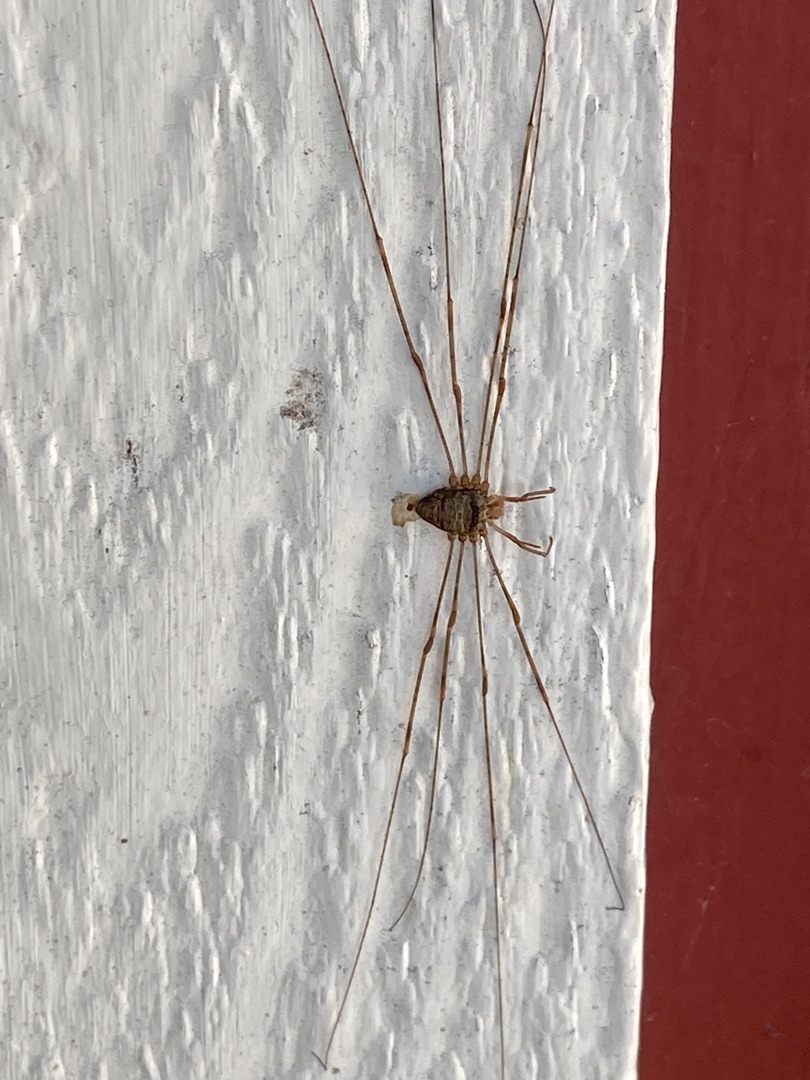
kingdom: Animalia
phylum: Arthropoda
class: Arachnida
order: Opiliones
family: Phalangiidae
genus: Dicranopalpus
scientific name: Dicranopalpus ramosus
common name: Gaffelmejer
